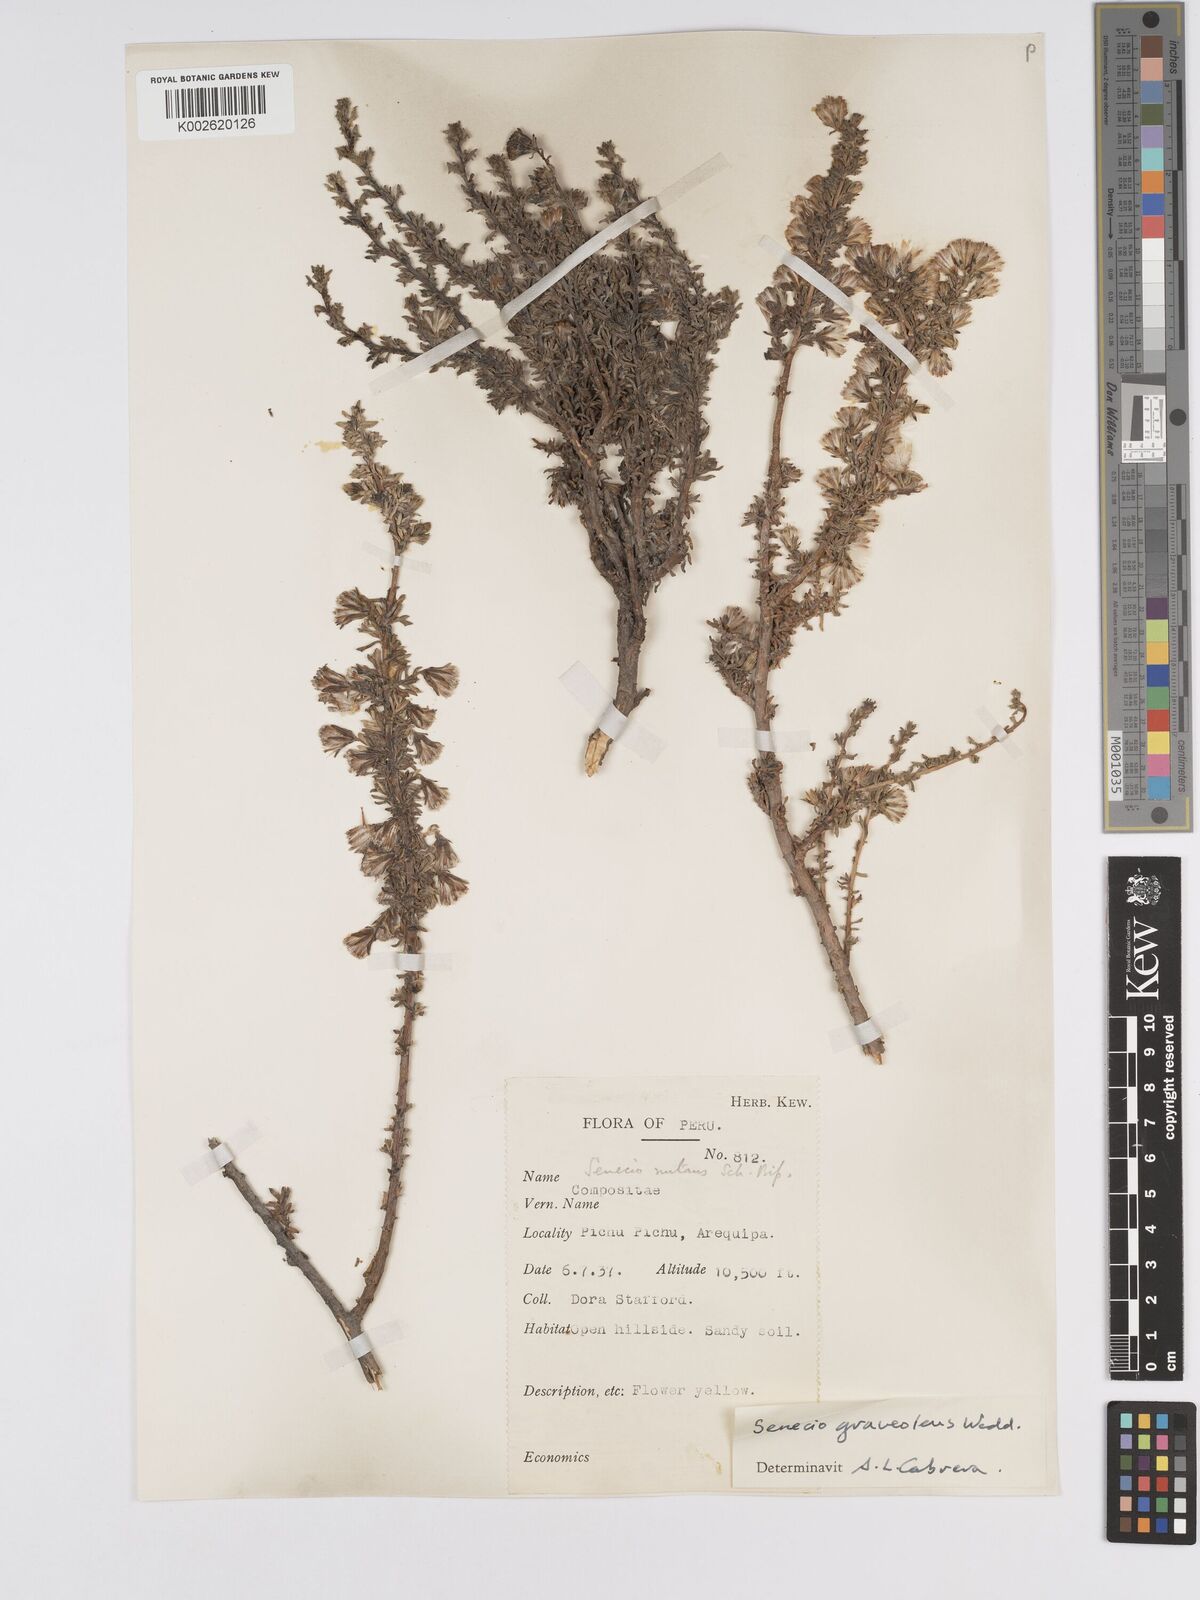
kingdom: Plantae
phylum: Tracheophyta
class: Magnoliopsida
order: Asterales
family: Asteraceae
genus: Senecio
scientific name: Senecio nutans
